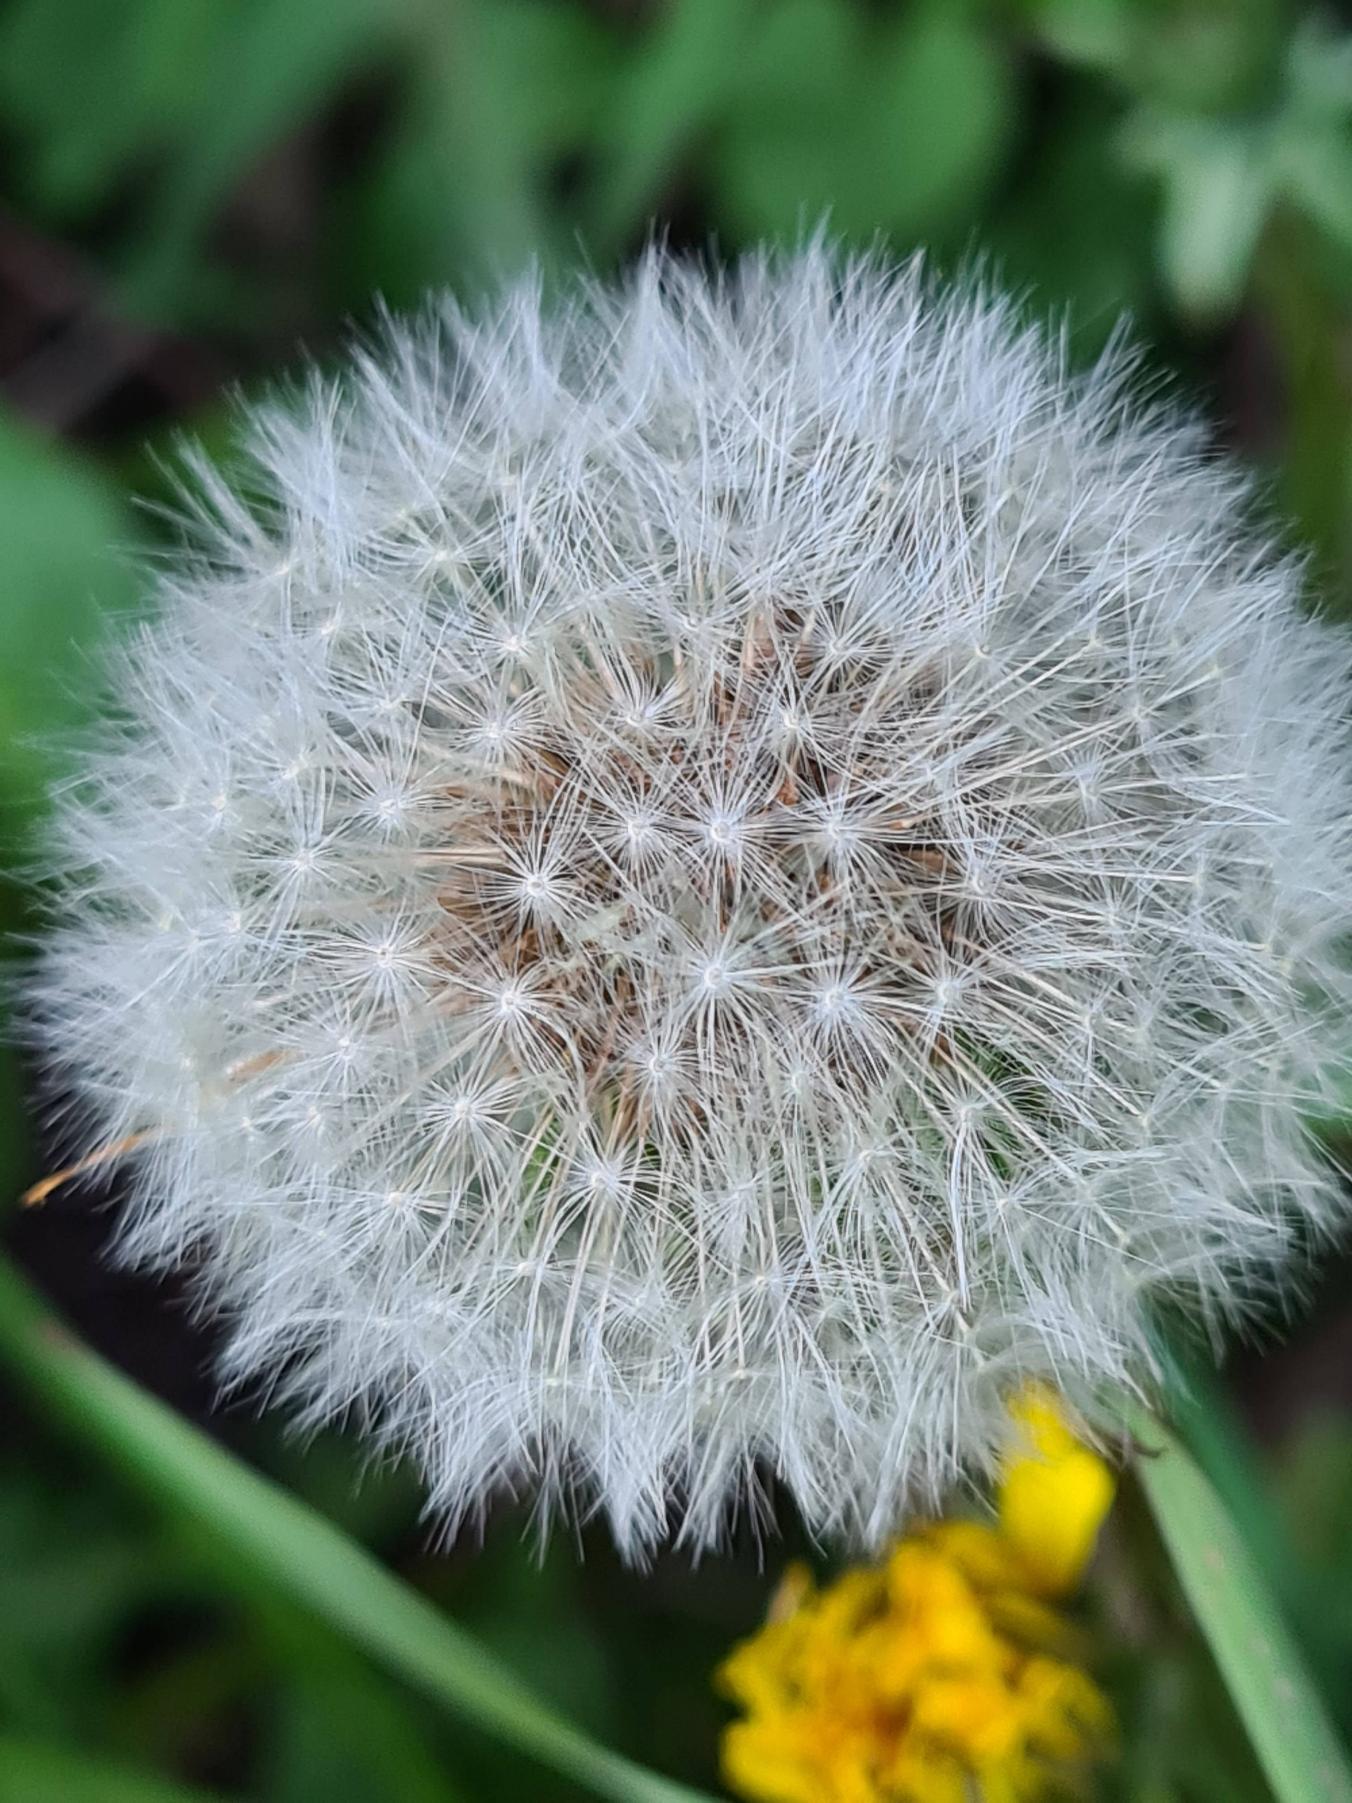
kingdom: Plantae
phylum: Tracheophyta
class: Magnoliopsida
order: Asterales
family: Asteraceae
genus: Taraxacum
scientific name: Taraxacum
